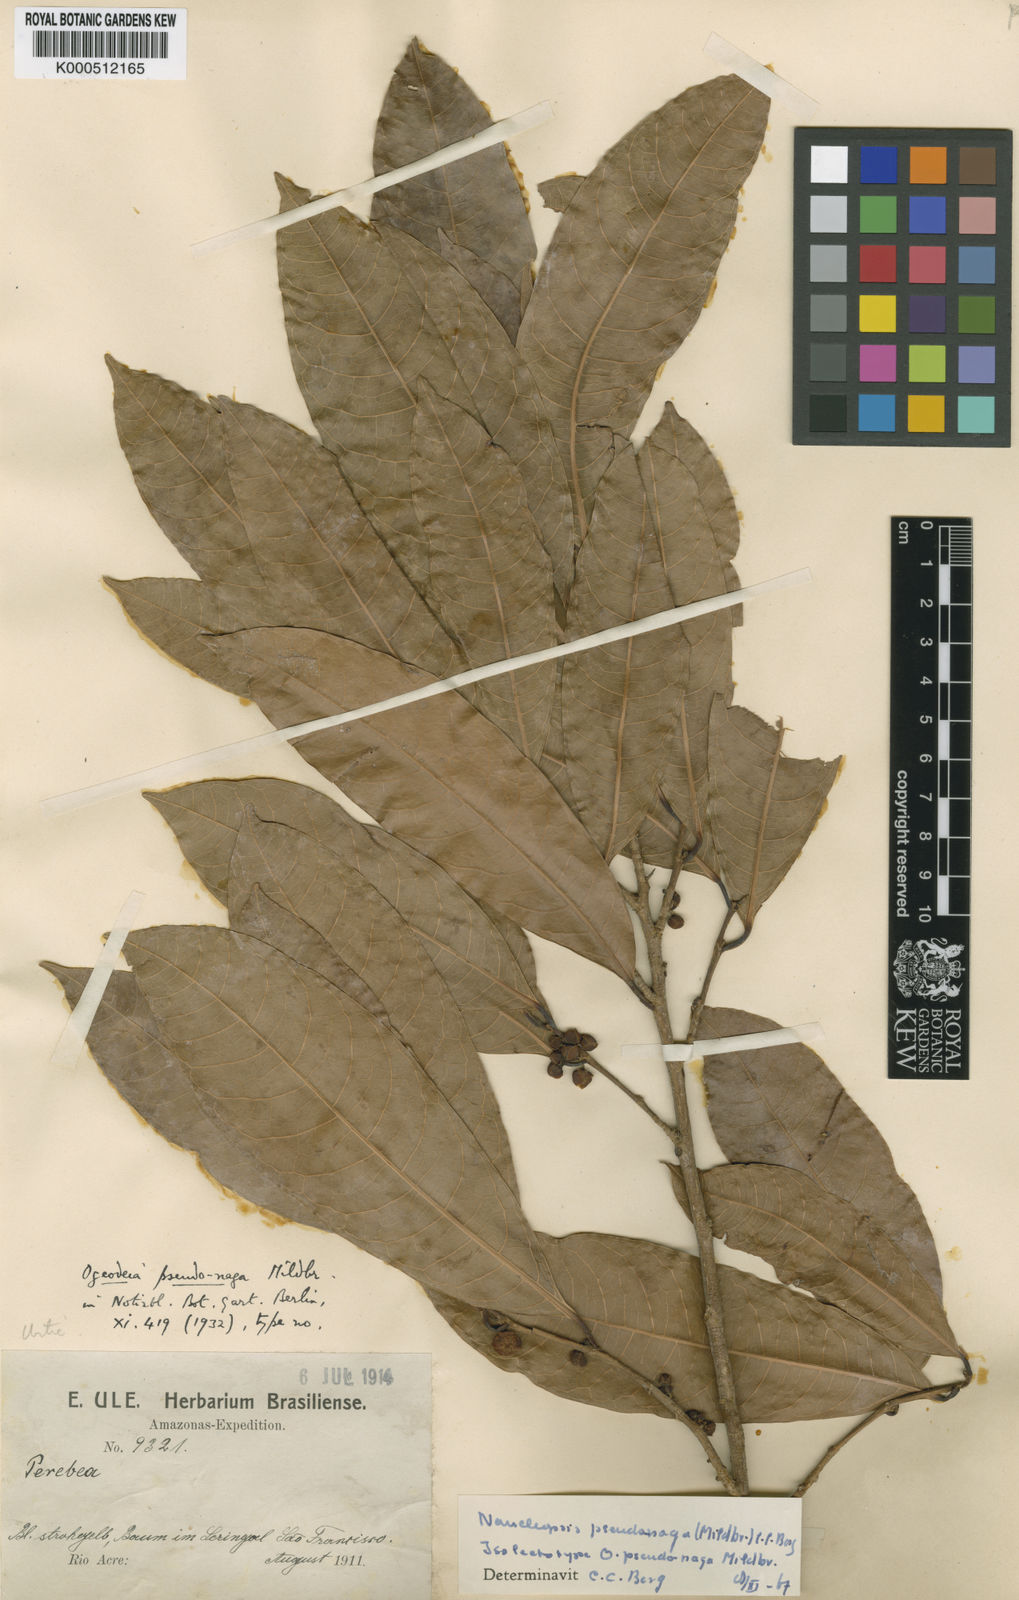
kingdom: Plantae
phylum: Tracheophyta
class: Magnoliopsida
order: Rosales
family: Moraceae
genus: Naucleopsis
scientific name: Naucleopsis pseudonaga
